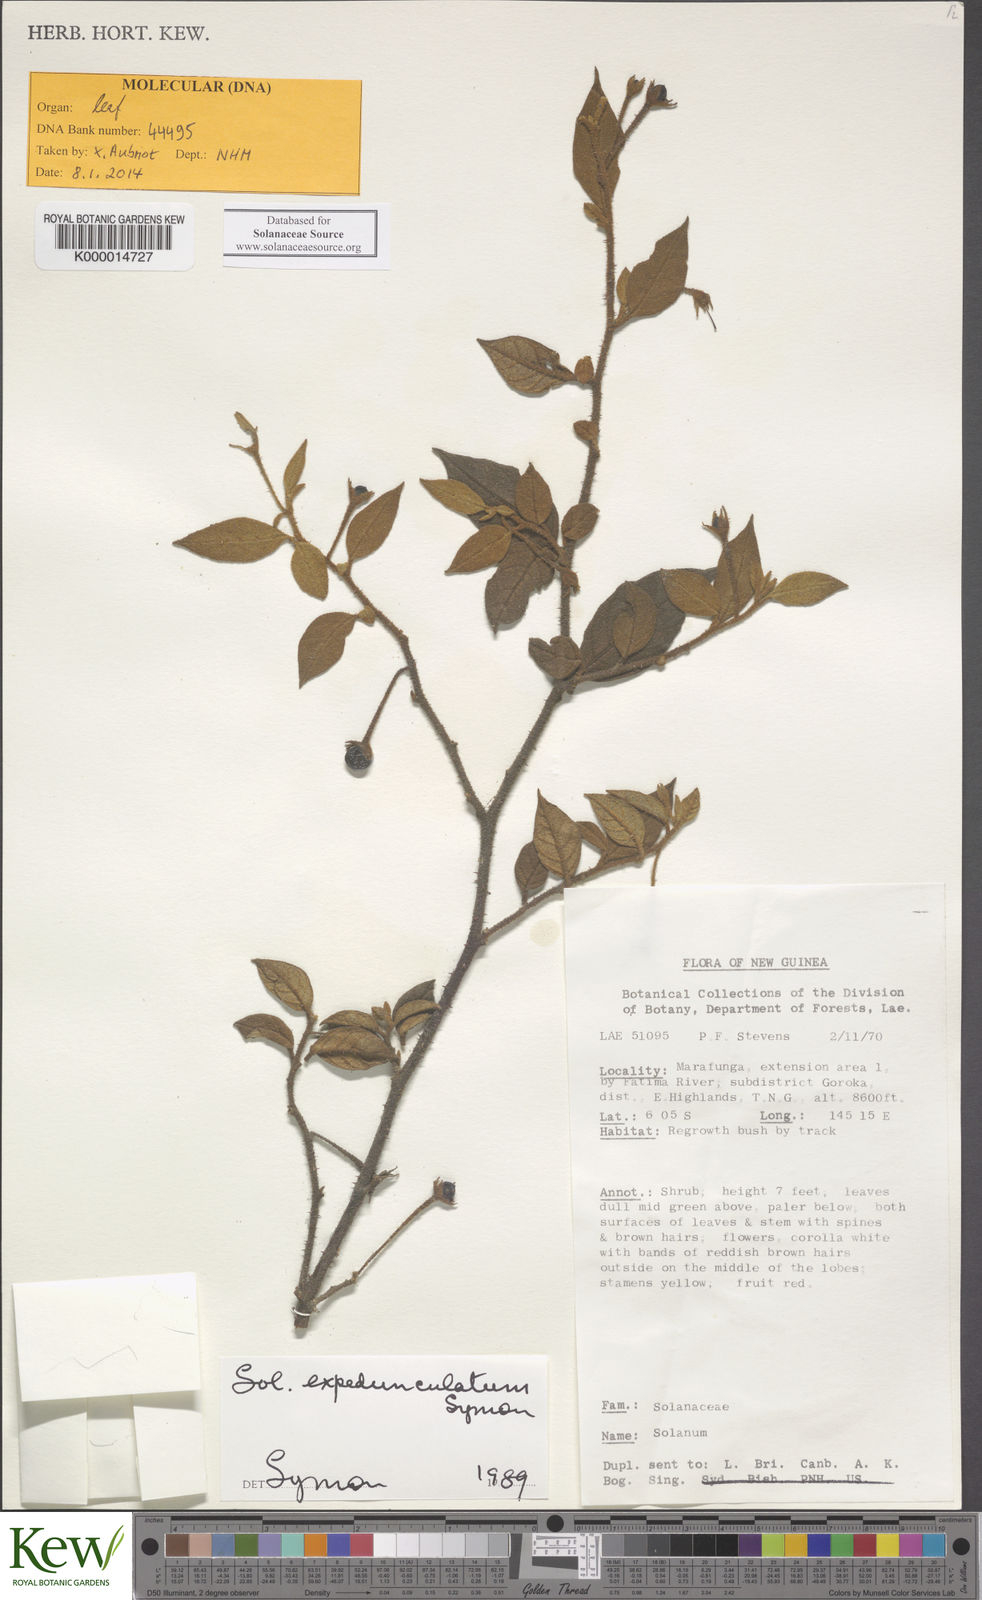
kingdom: Plantae
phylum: Tracheophyta
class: Magnoliopsida
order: Solanales
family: Solanaceae
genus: Solanum
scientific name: Solanum expedunculatum
